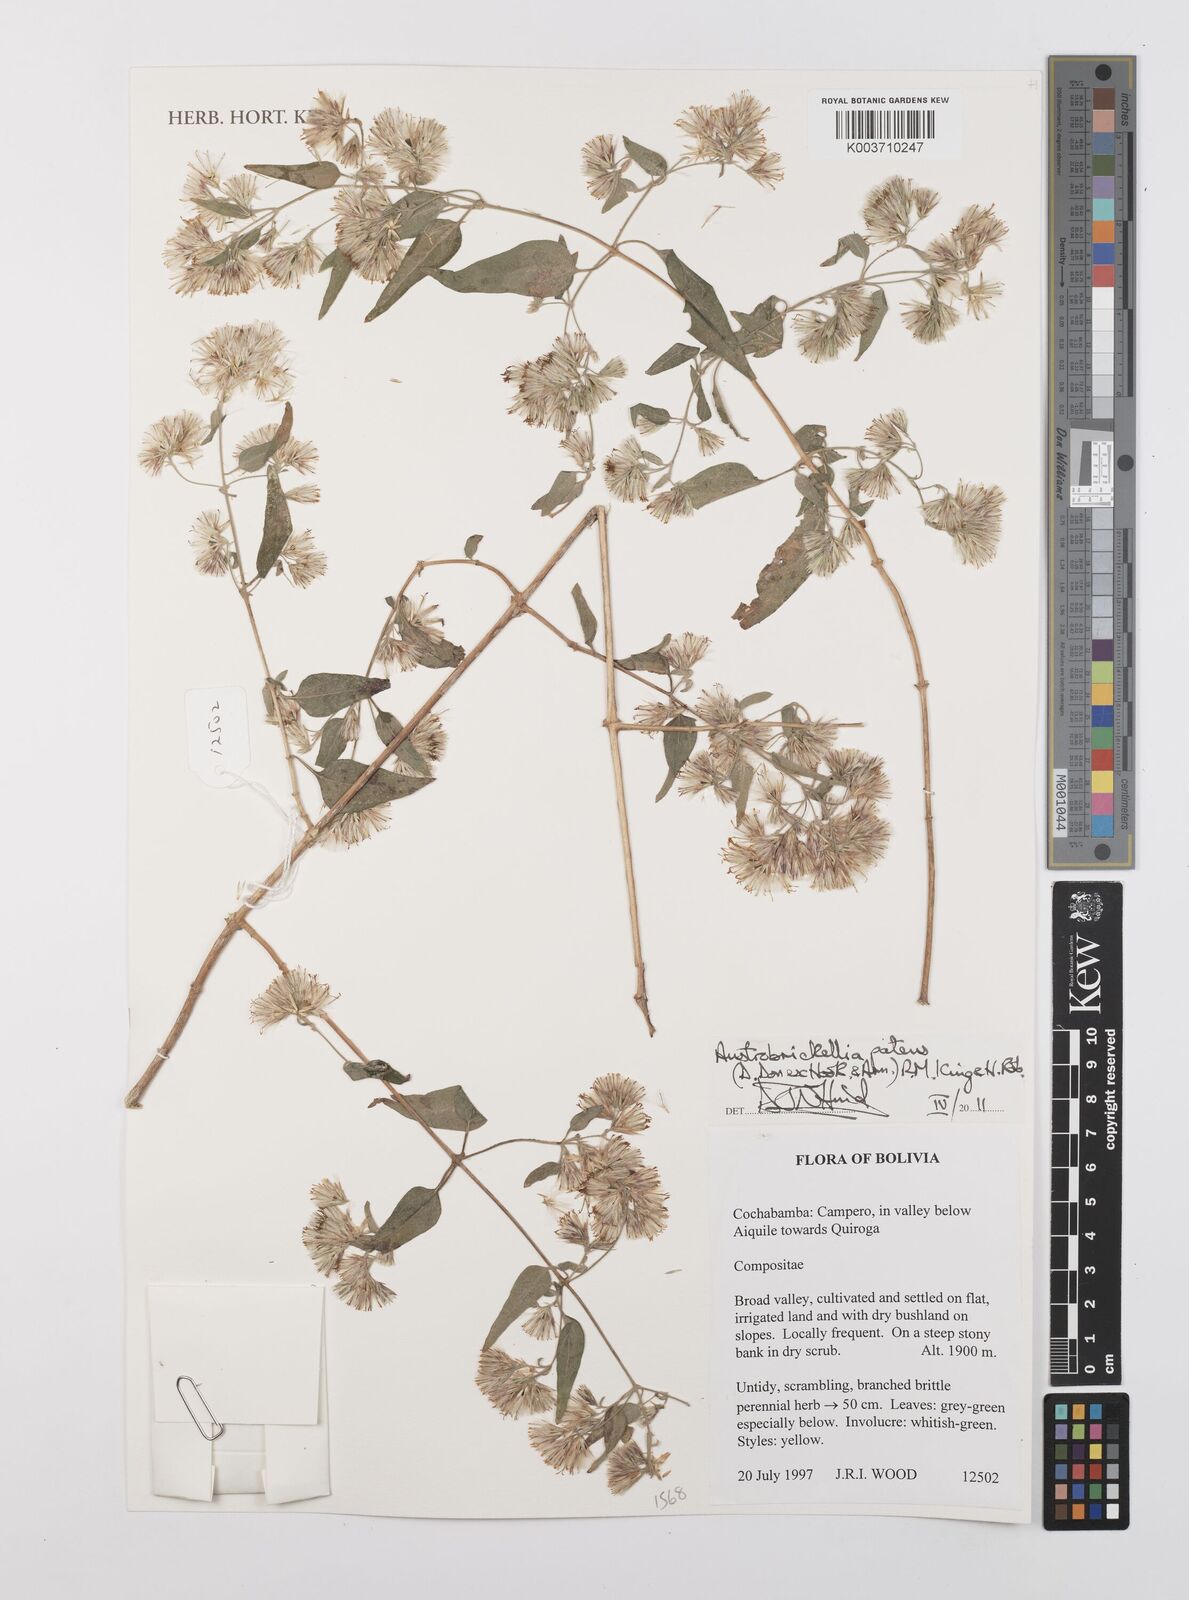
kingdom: Plantae
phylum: Tracheophyta
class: Magnoliopsida
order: Asterales
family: Asteraceae
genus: Austrobrickellia
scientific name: Austrobrickellia patens
